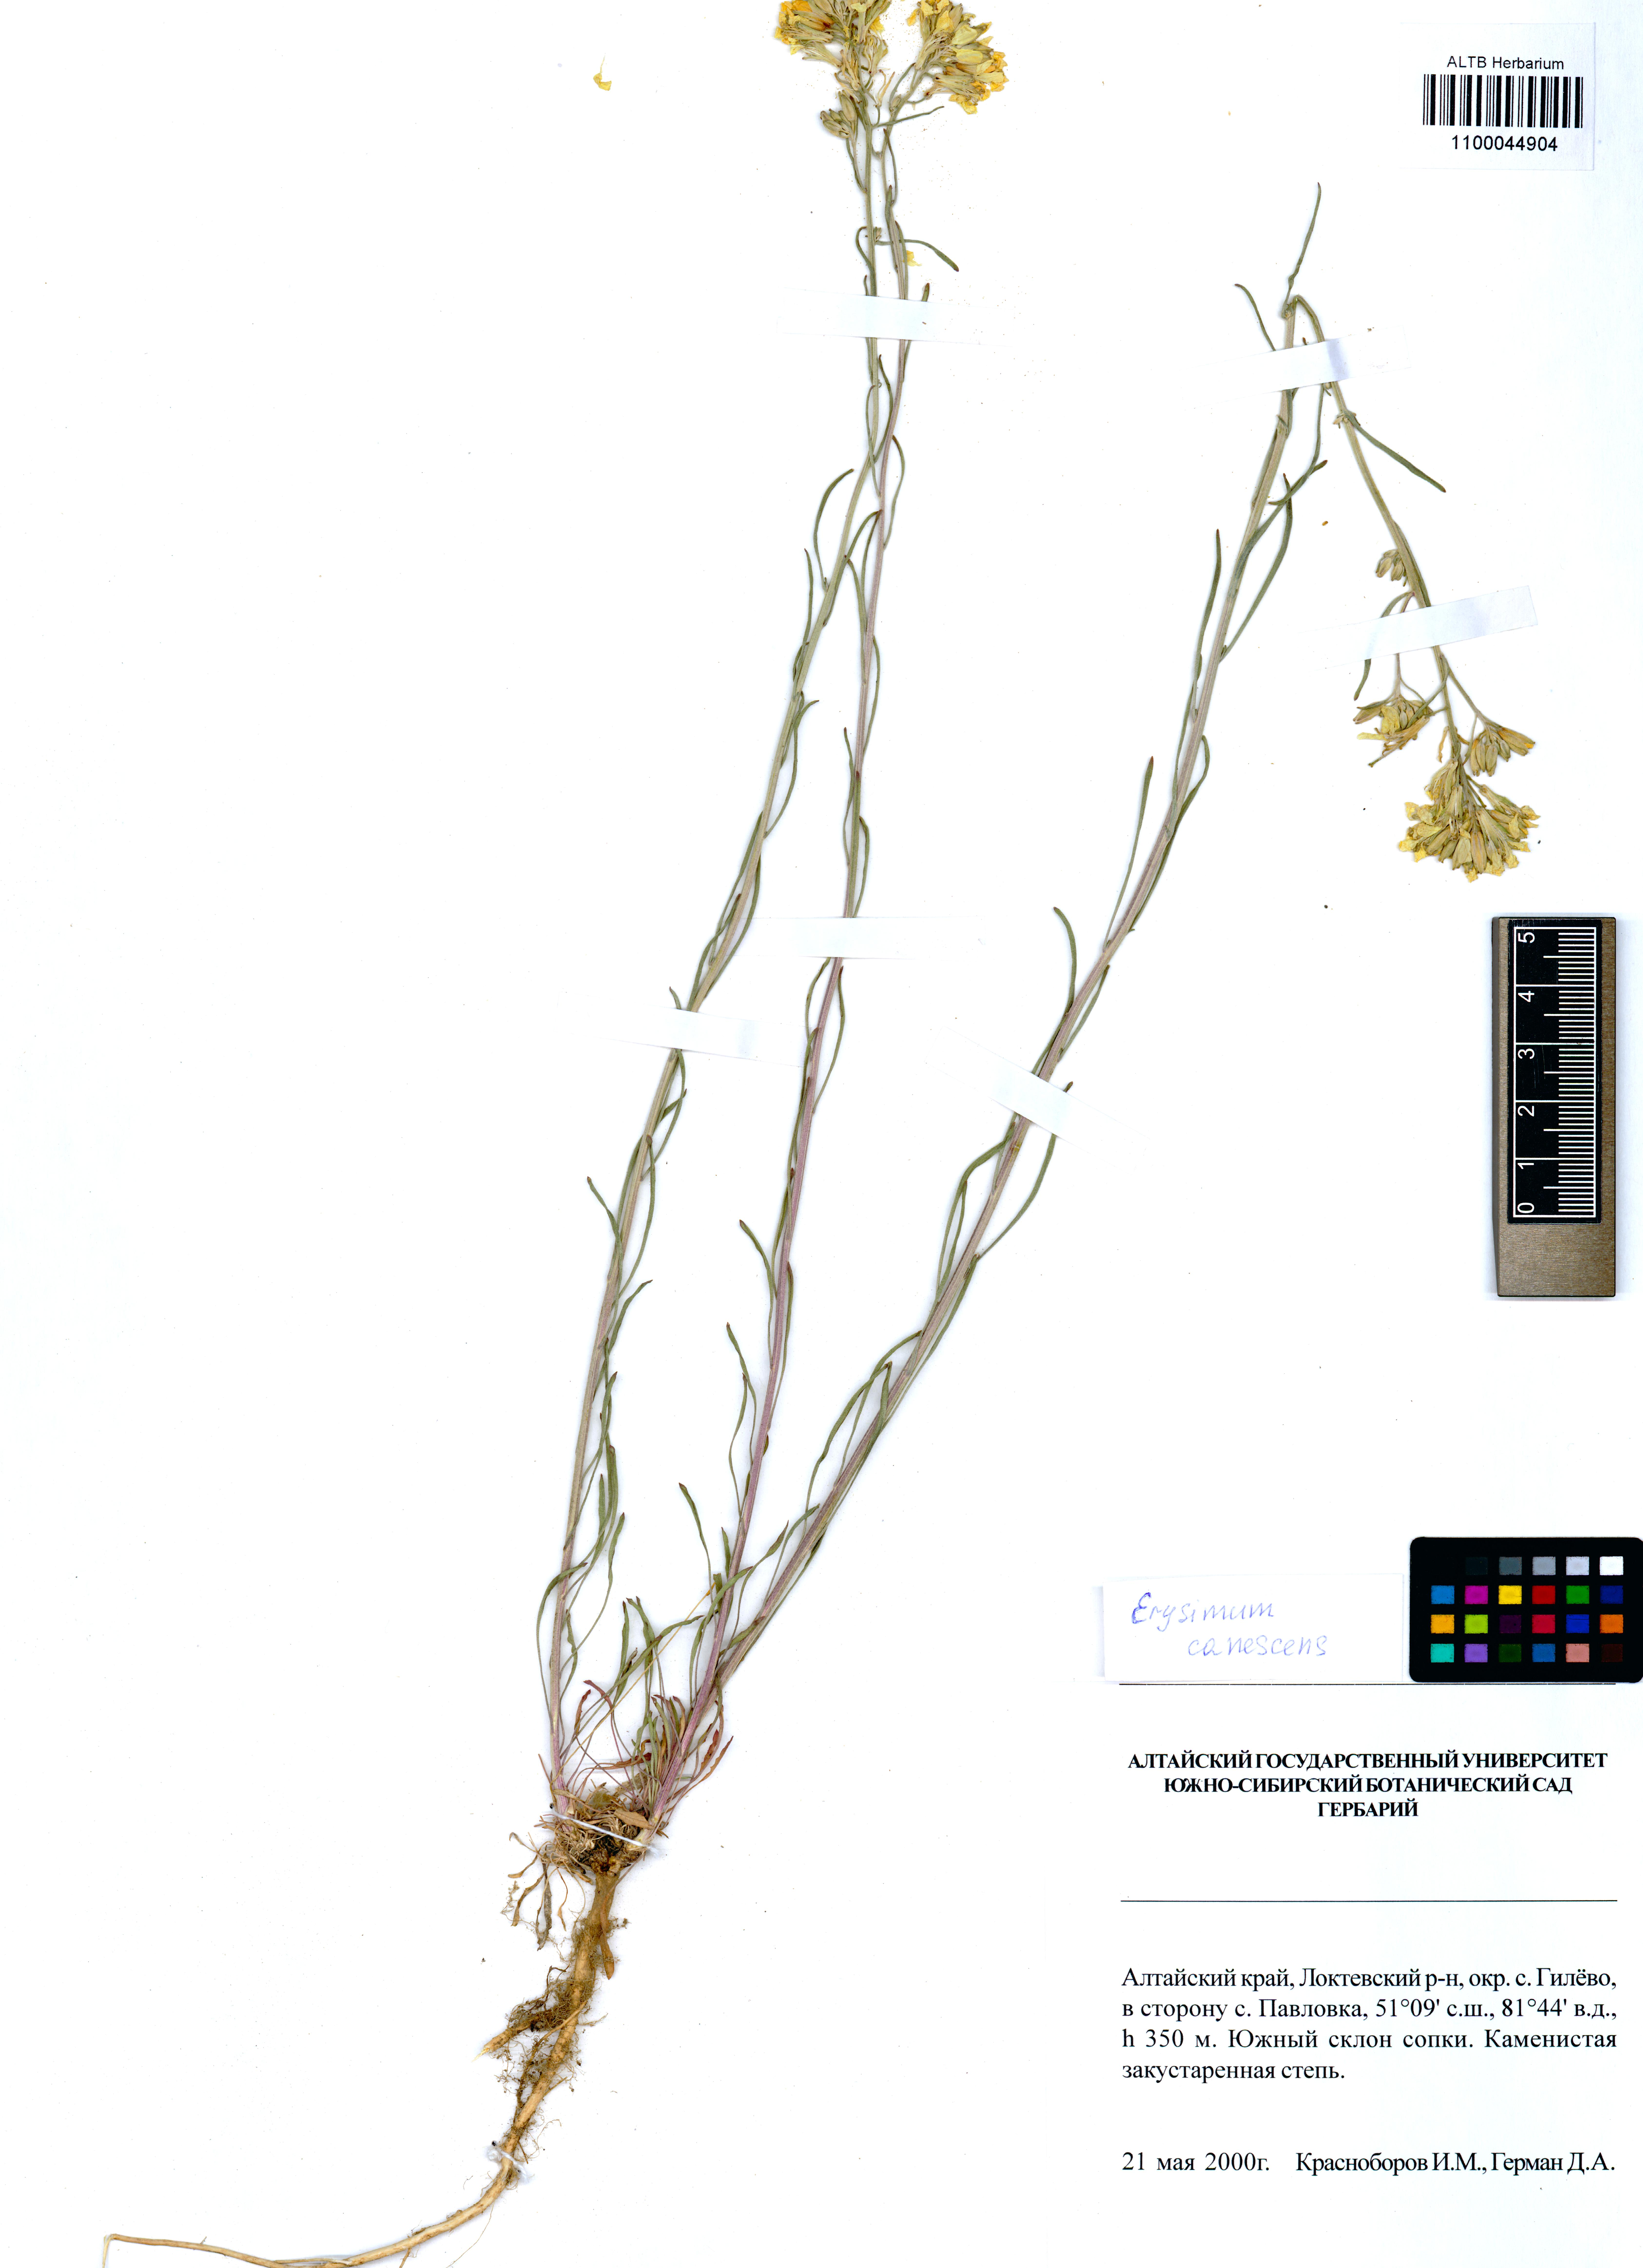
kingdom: Plantae
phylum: Tracheophyta
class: Magnoliopsida
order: Brassicales
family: Brassicaceae
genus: Erysimum
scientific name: Erysimum canescens
